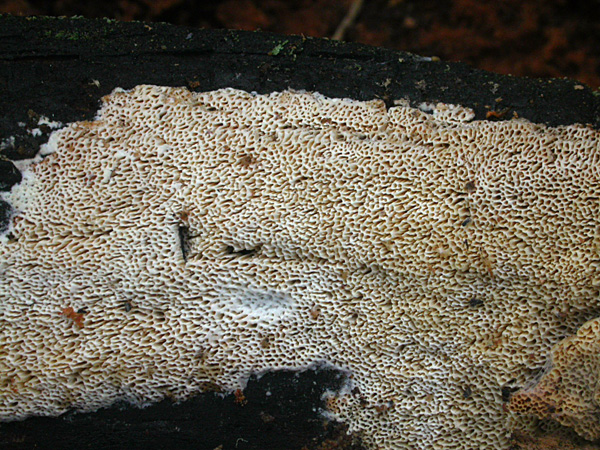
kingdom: Fungi
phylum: Basidiomycota
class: Agaricomycetes
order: Polyporales
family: Fomitopsidaceae
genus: Antrodia
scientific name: Antrodia sinuosa
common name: tømmer-sejporesvamp
